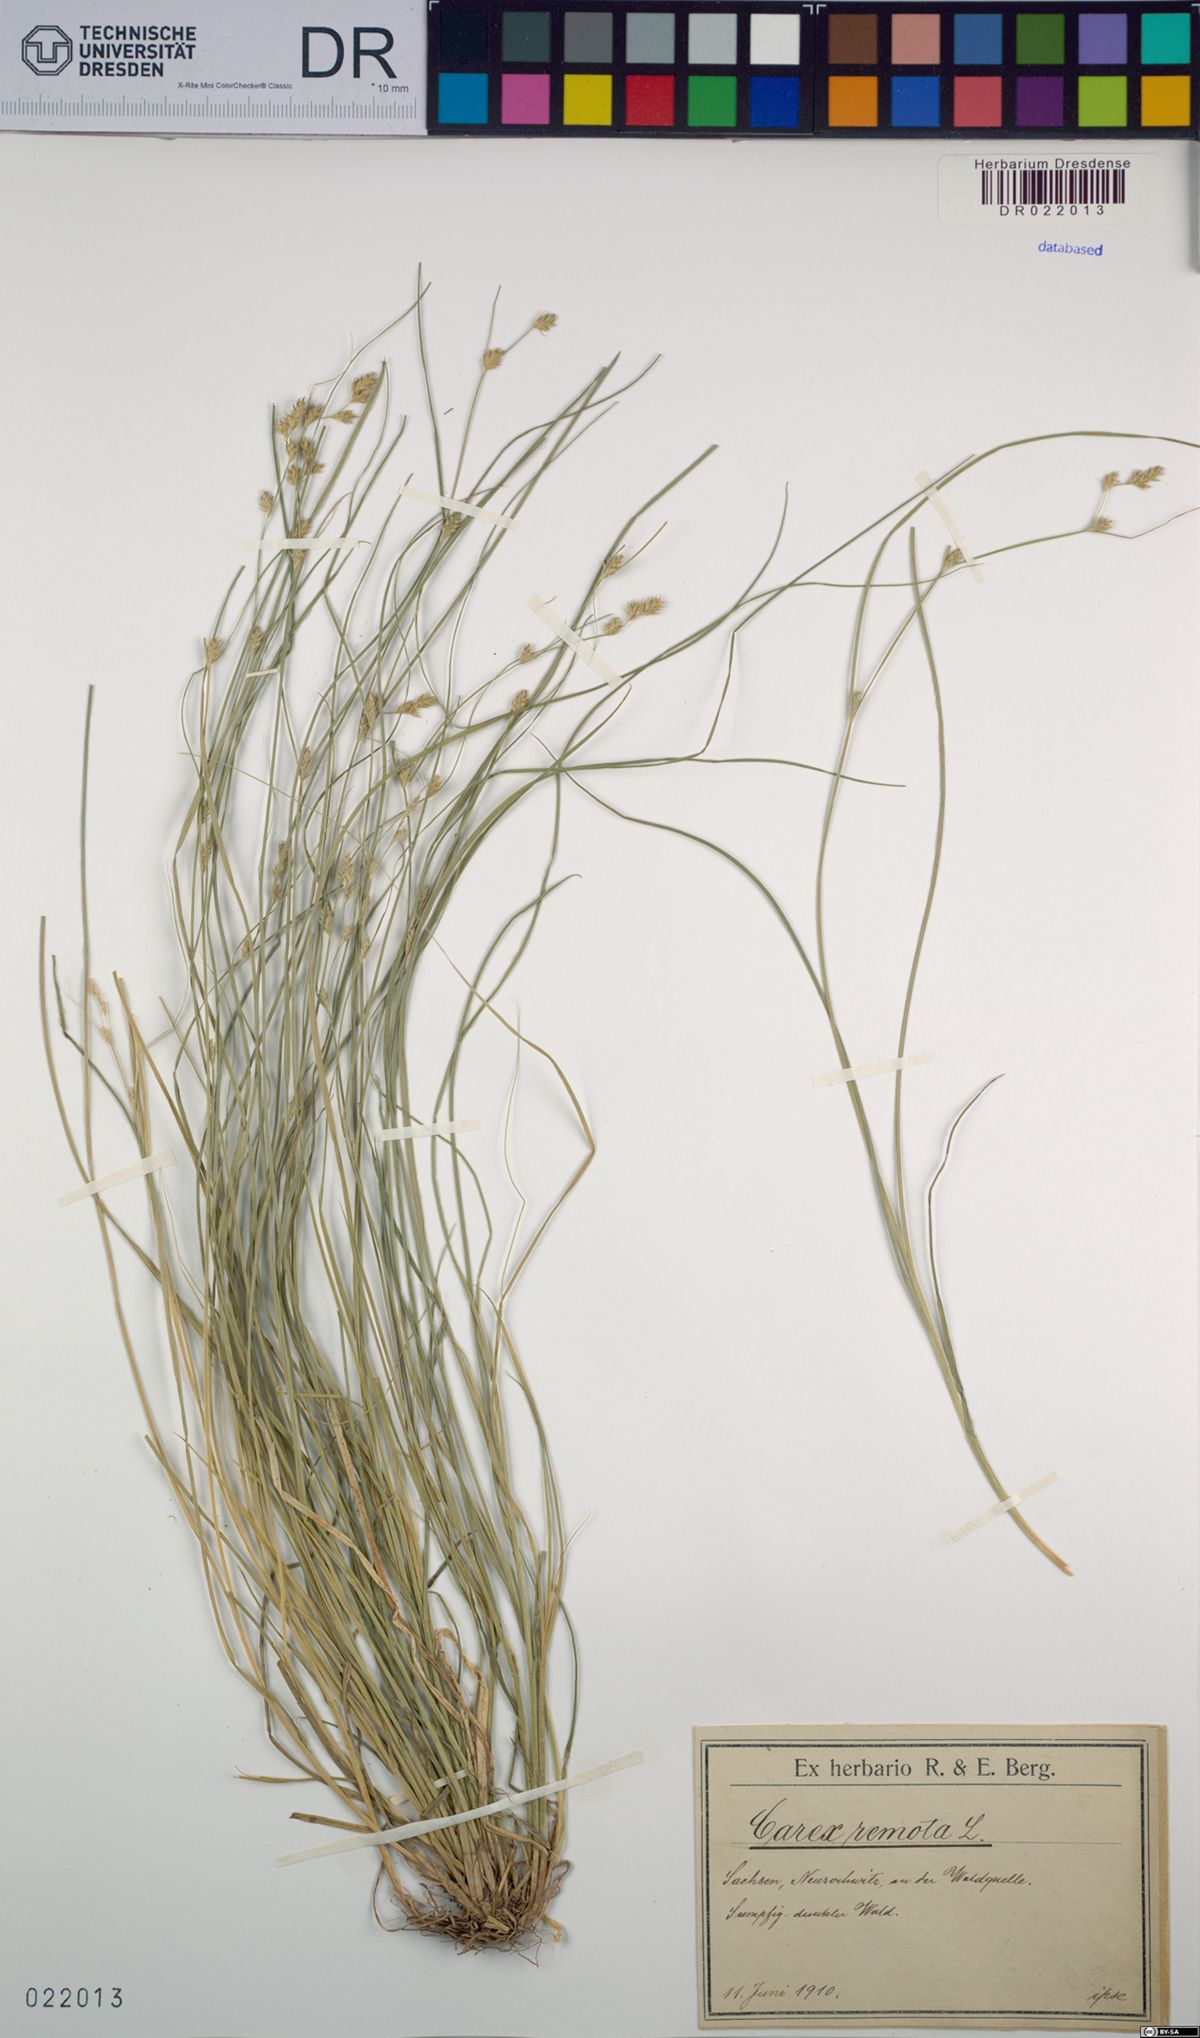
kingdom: Plantae
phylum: Tracheophyta
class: Liliopsida
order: Poales
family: Cyperaceae
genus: Carex
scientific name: Carex remota
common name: Remote sedge
